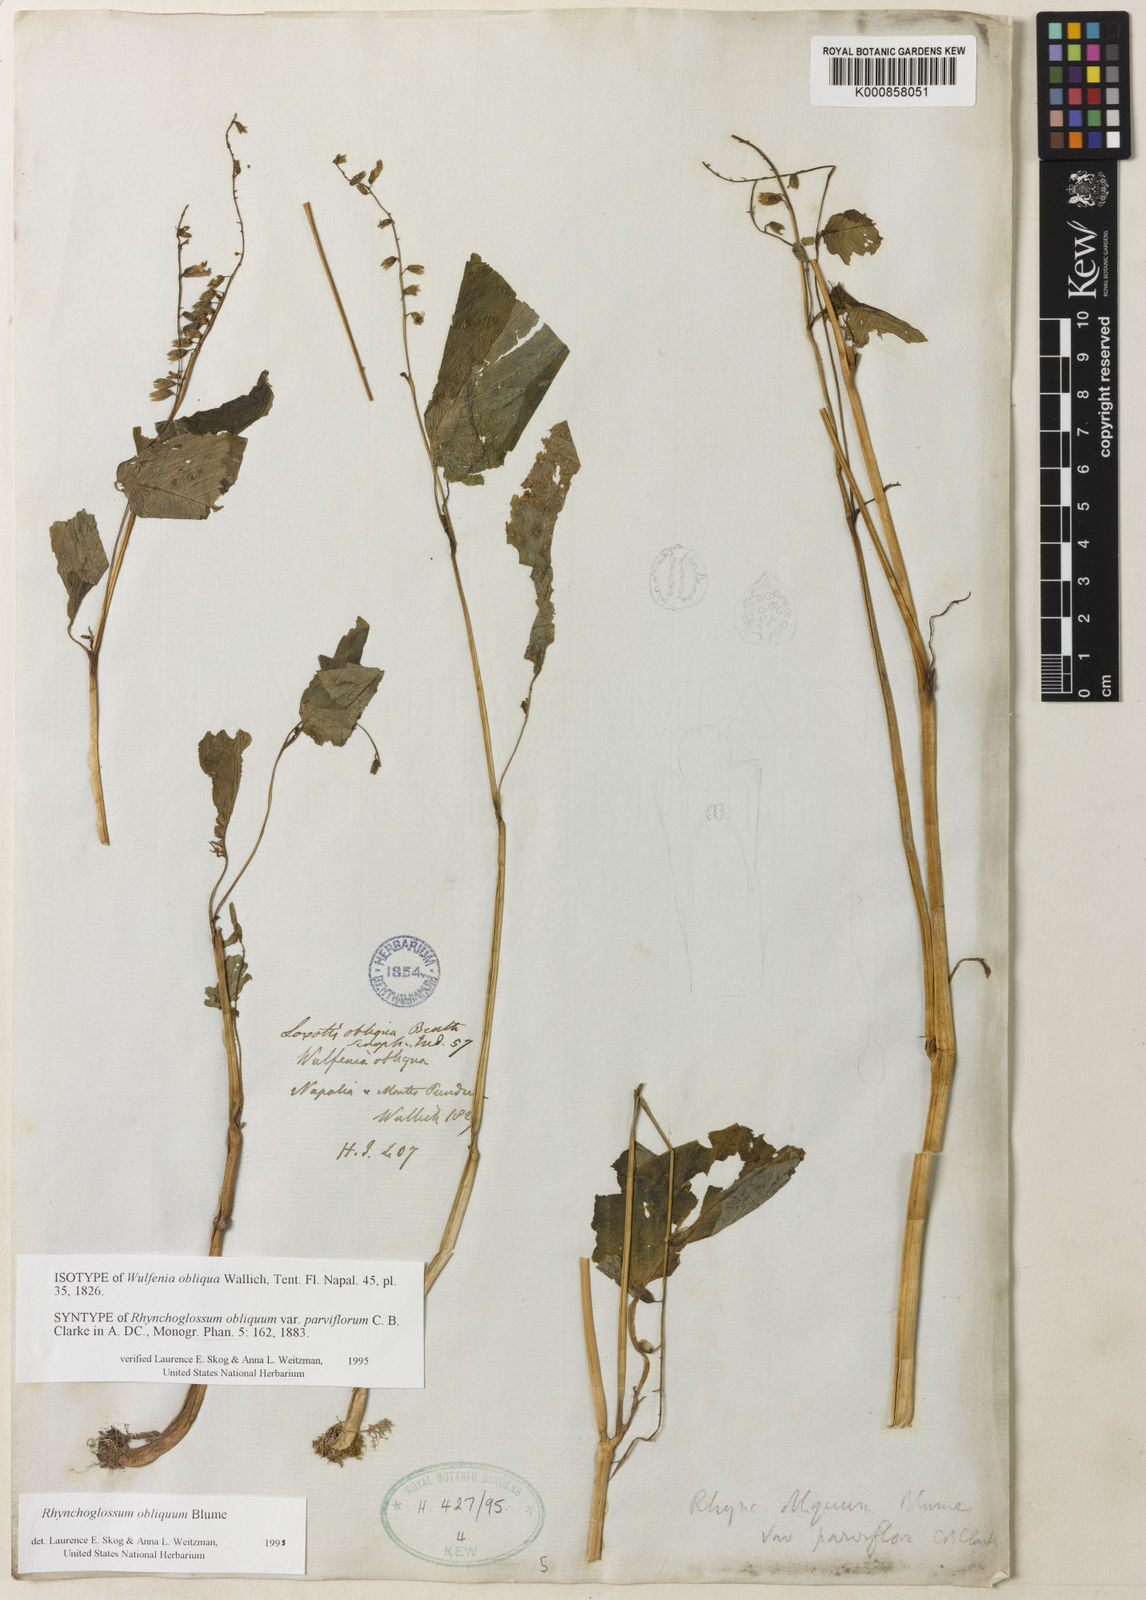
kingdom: Plantae
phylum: Tracheophyta
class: Magnoliopsida
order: Lamiales
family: Gesneriaceae
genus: Rhynchoglossum
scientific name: Rhynchoglossum obliquum
